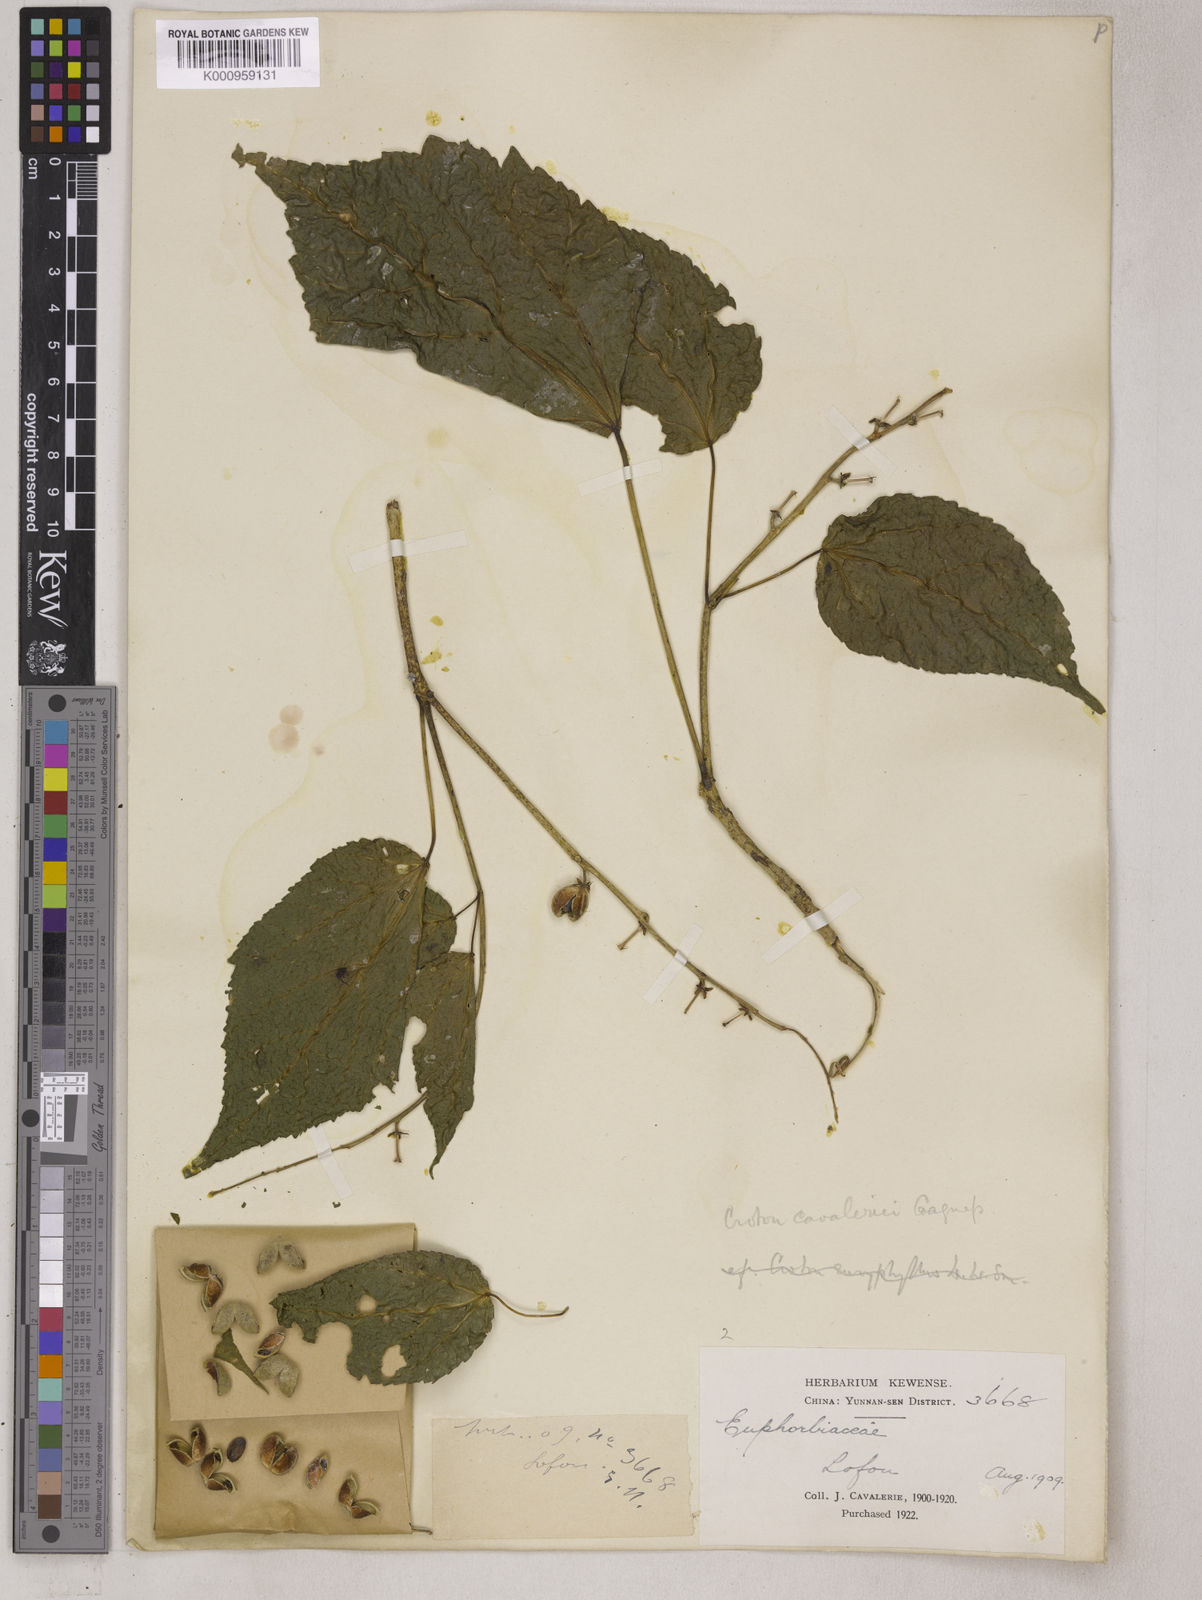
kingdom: Plantae
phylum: Tracheophyta
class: Magnoliopsida
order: Malpighiales
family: Euphorbiaceae
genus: Croton
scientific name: Croton euryphyllus
